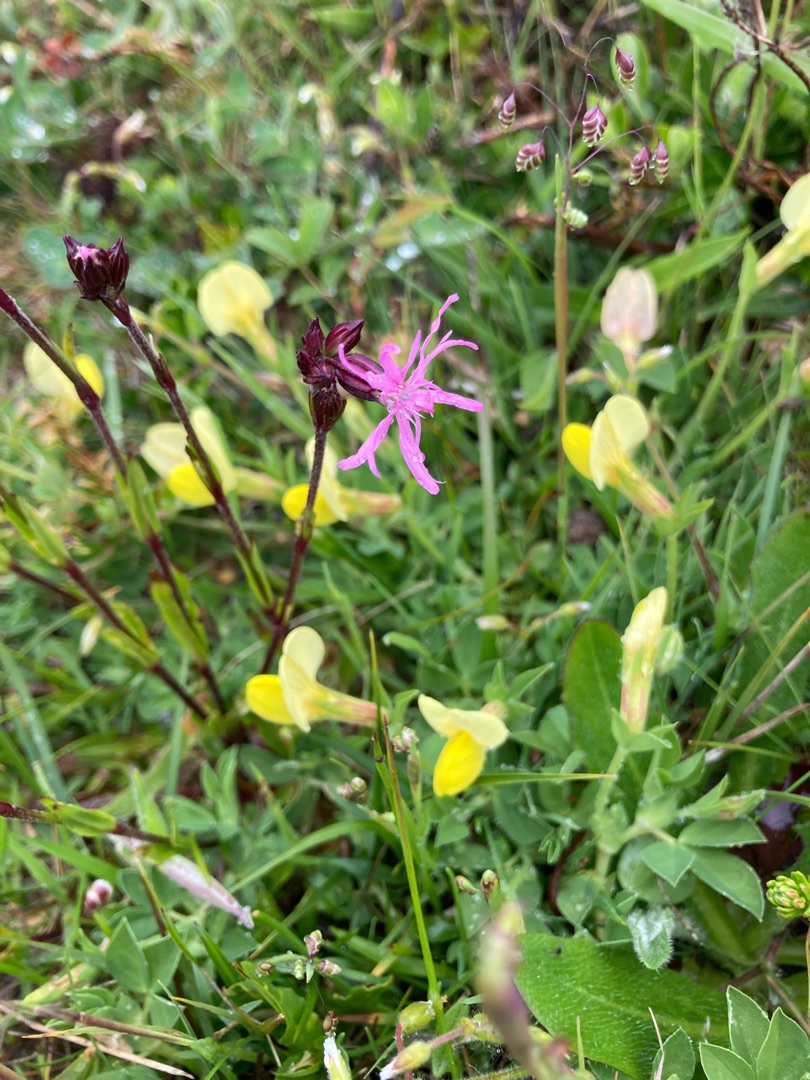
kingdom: Plantae
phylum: Tracheophyta
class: Magnoliopsida
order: Caryophyllales
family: Caryophyllaceae
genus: Silene
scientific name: Silene flos-cuculi
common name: Trævlekrone
